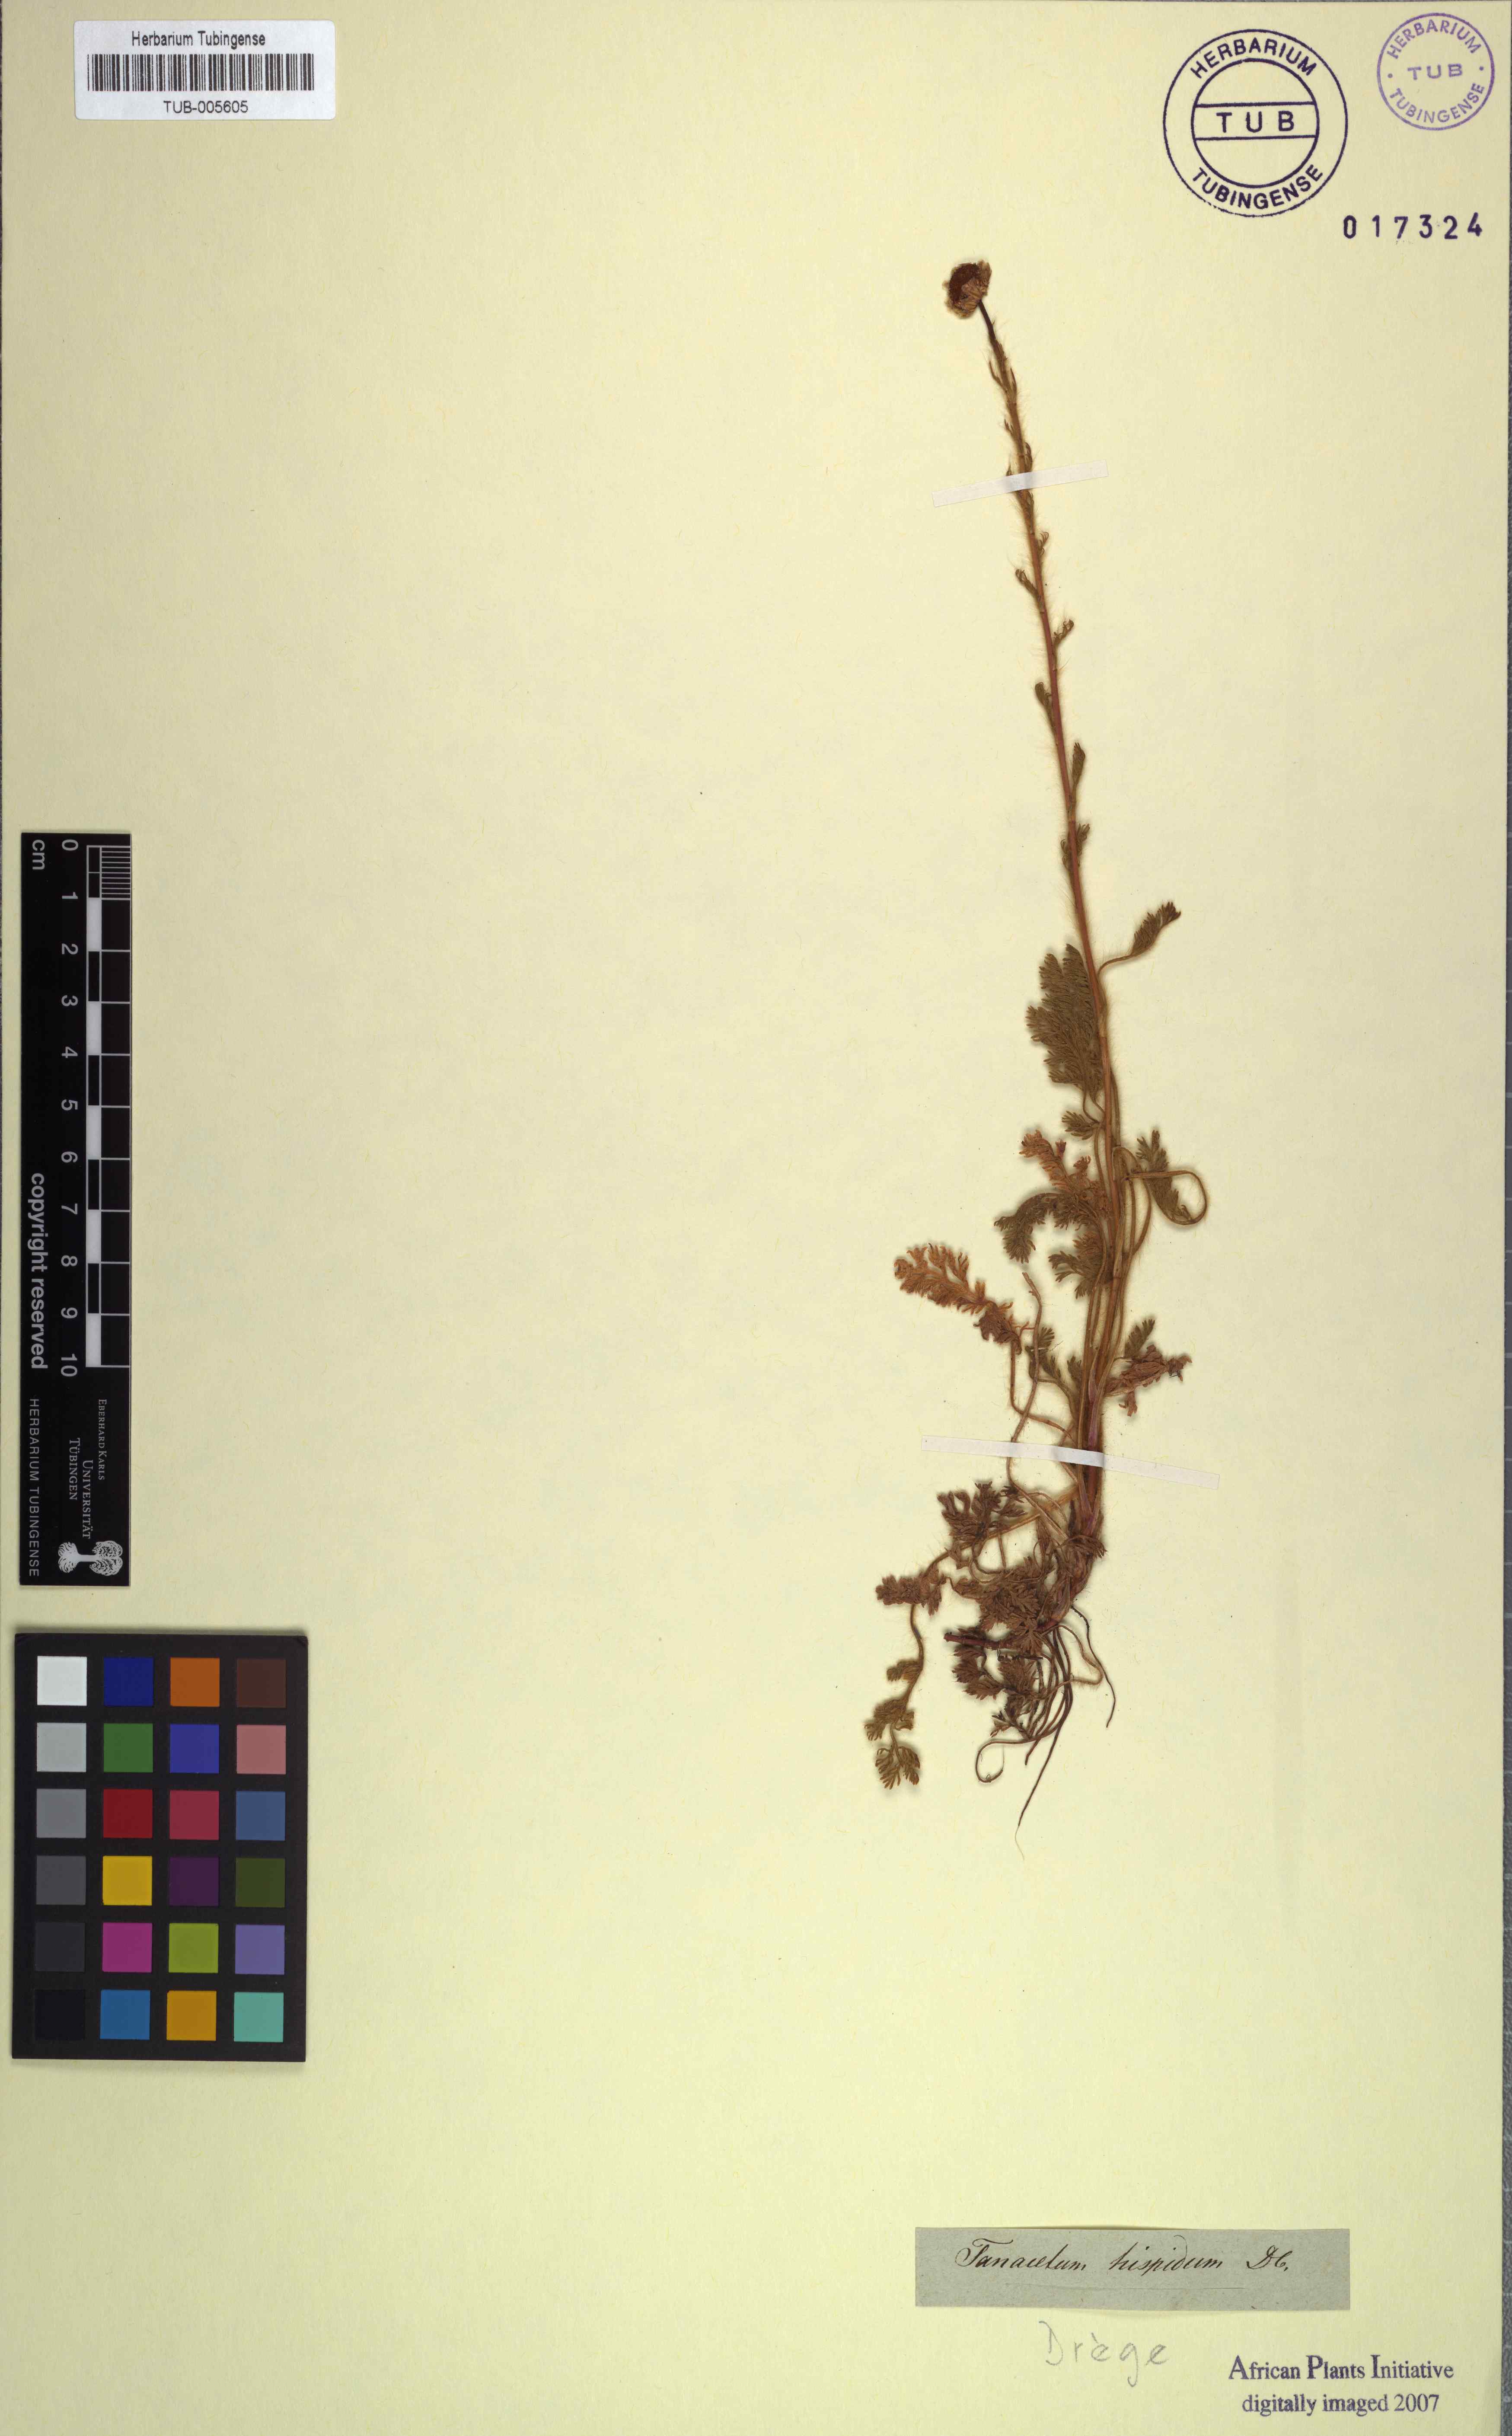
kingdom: Plantae
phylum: Tracheophyta
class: Magnoliopsida
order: Asterales
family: Asteraceae
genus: Cotula
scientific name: Cotula hispida
